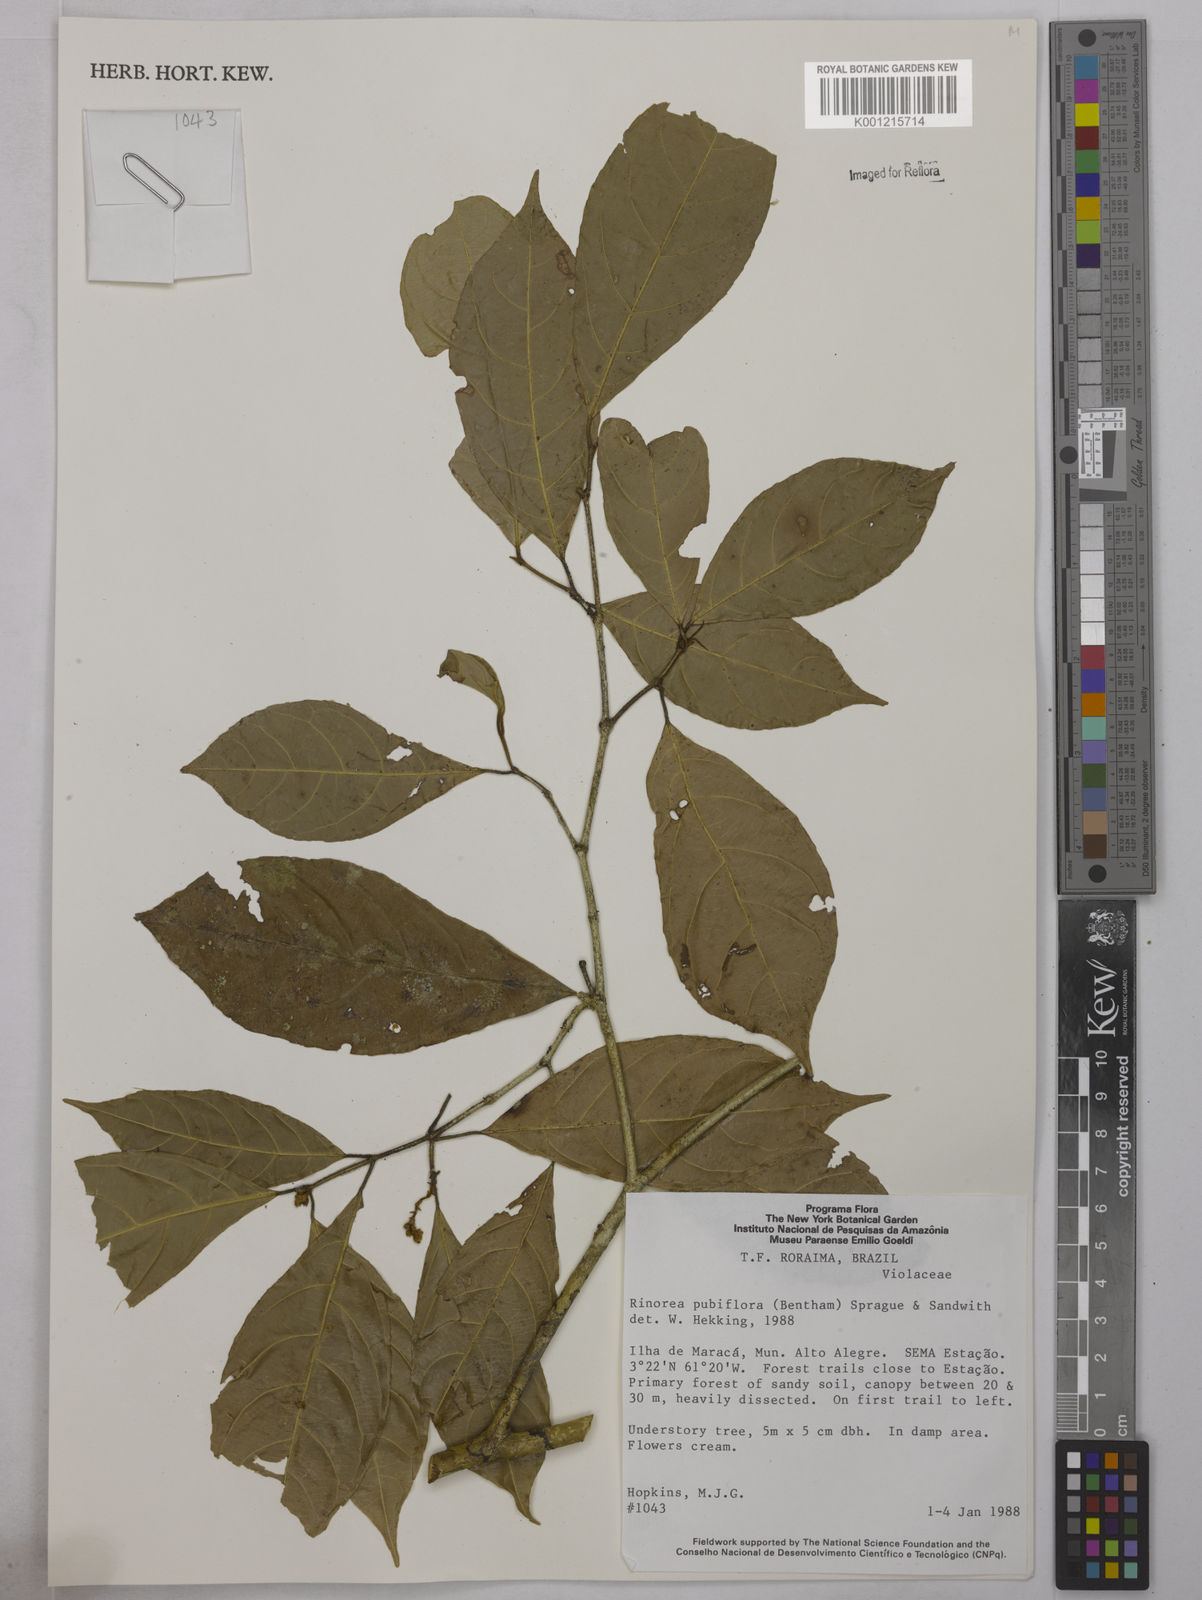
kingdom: Plantae
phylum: Tracheophyta
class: Magnoliopsida
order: Malpighiales
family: Violaceae
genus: Rinorea
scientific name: Rinorea pubiflora
